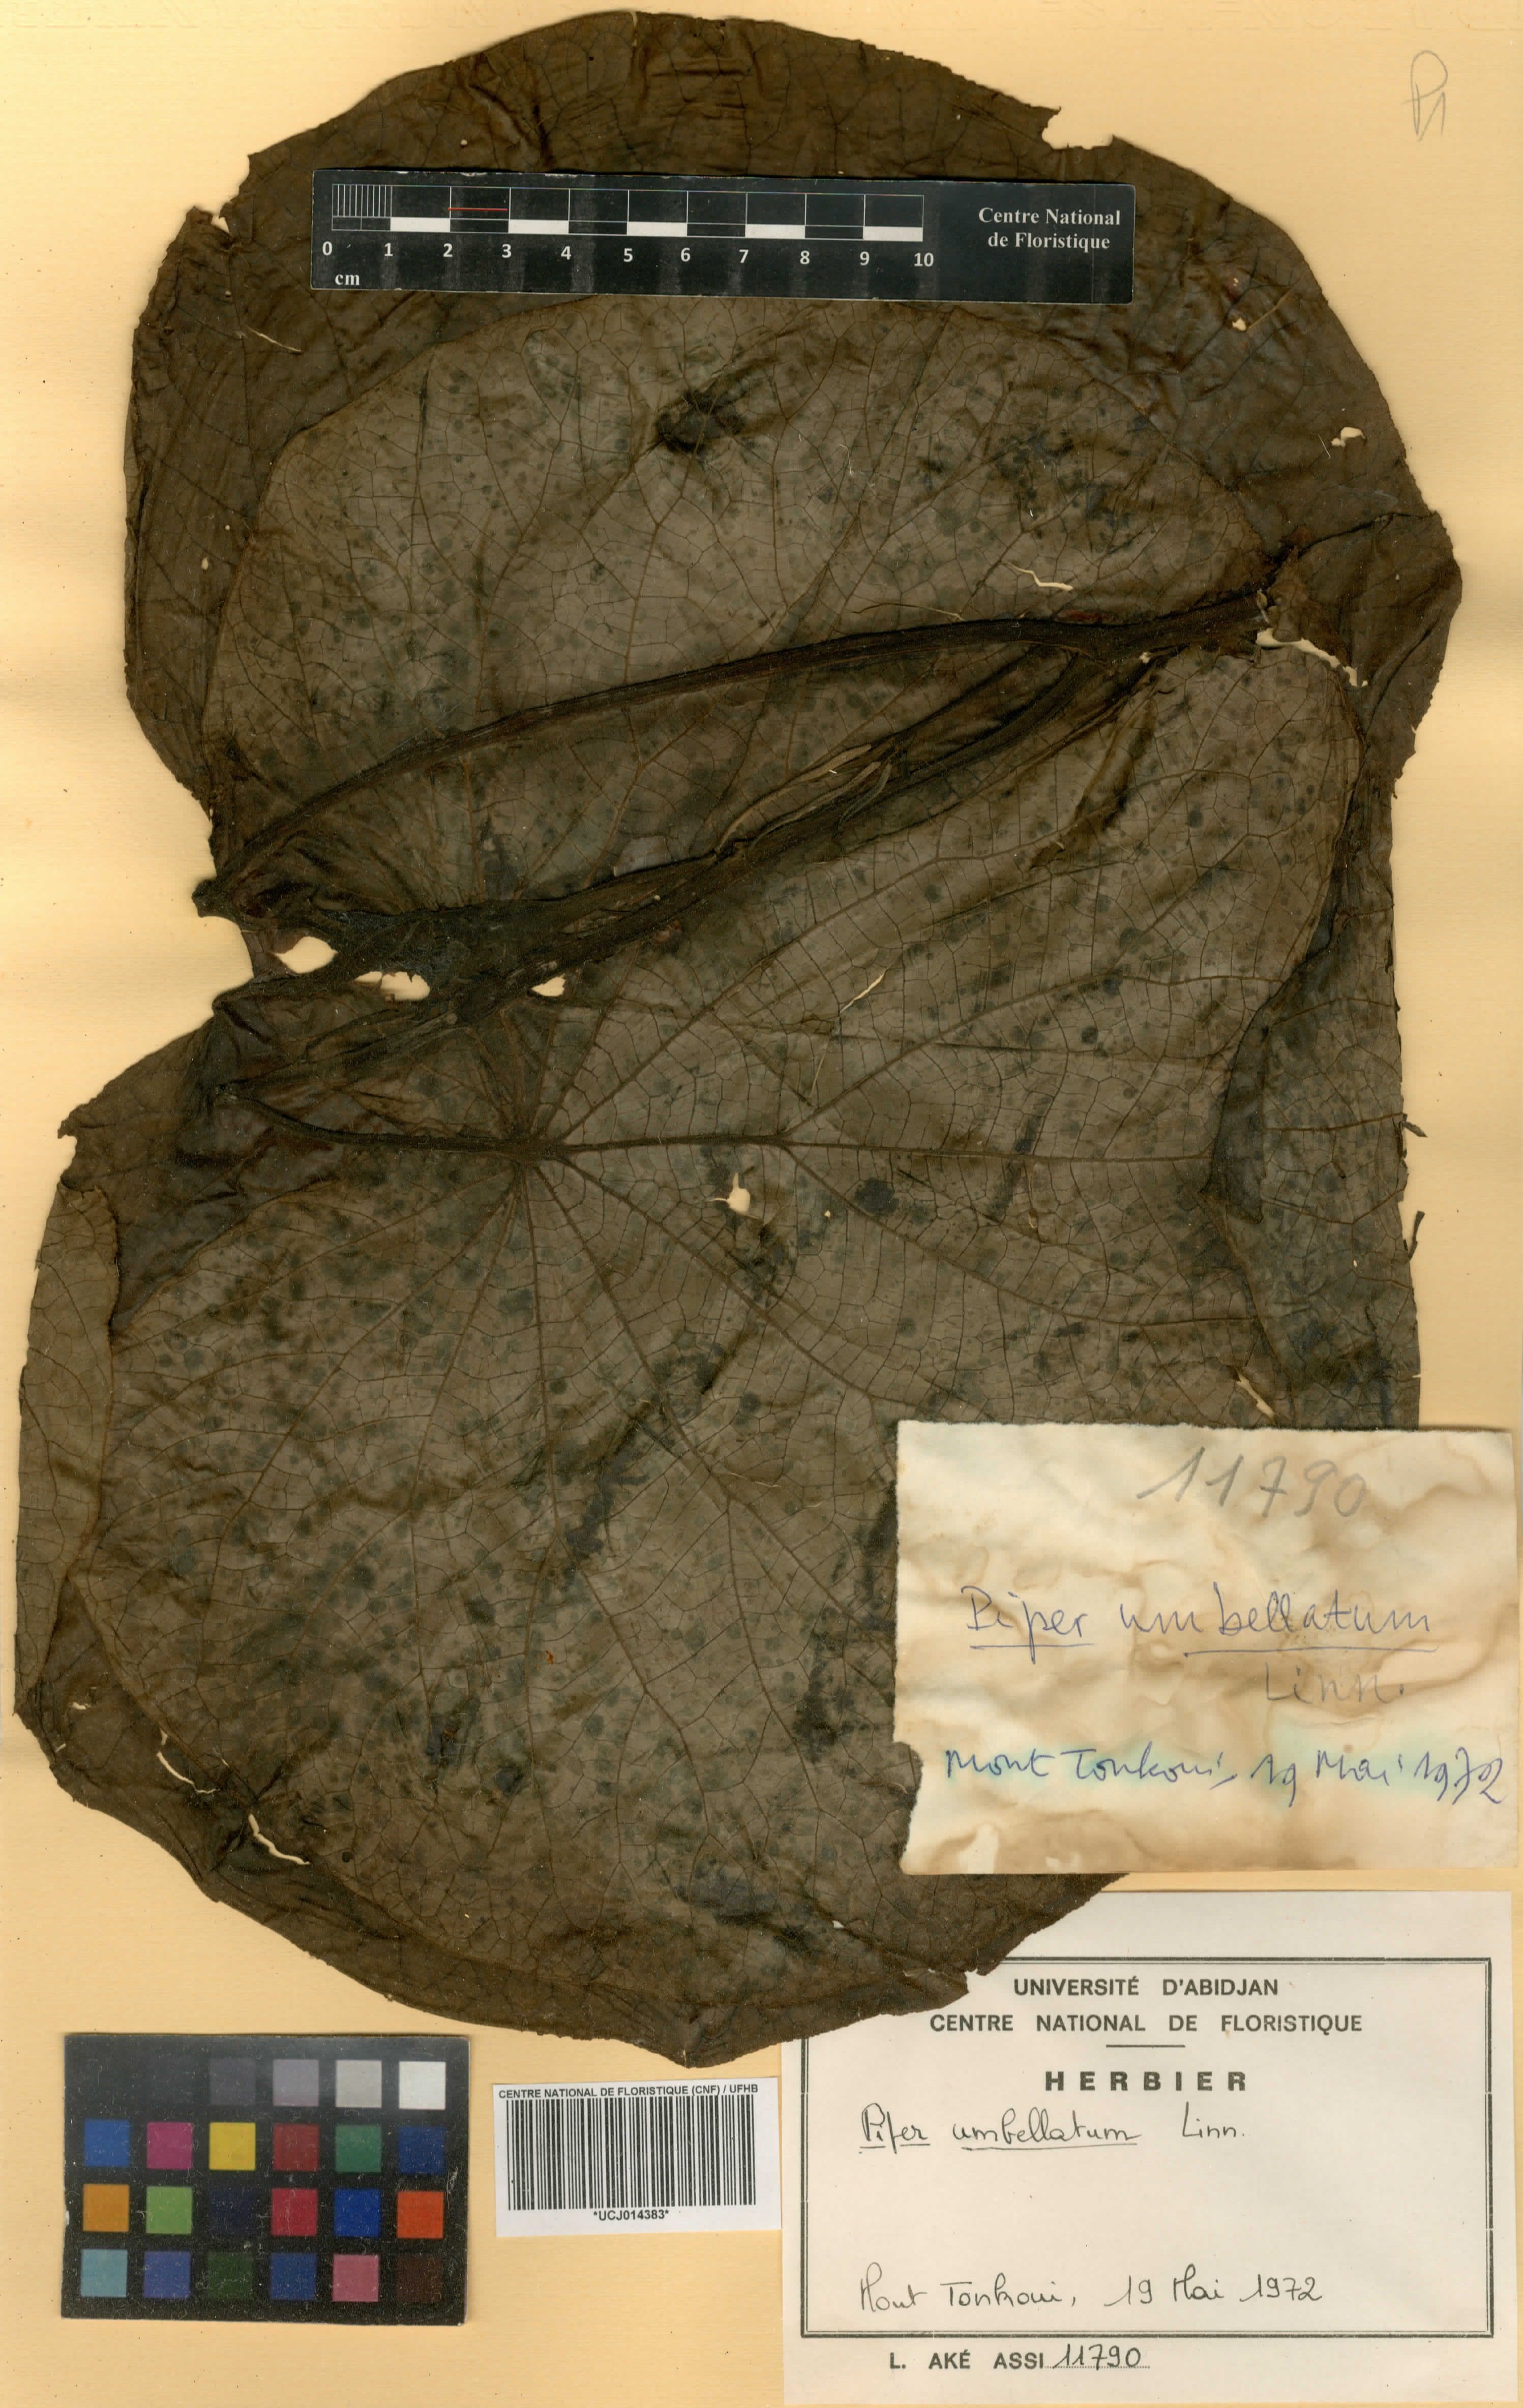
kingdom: Plantae
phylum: Tracheophyta
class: Magnoliopsida
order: Piperales
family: Piperaceae
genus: Piper
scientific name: Piper umbellatum
